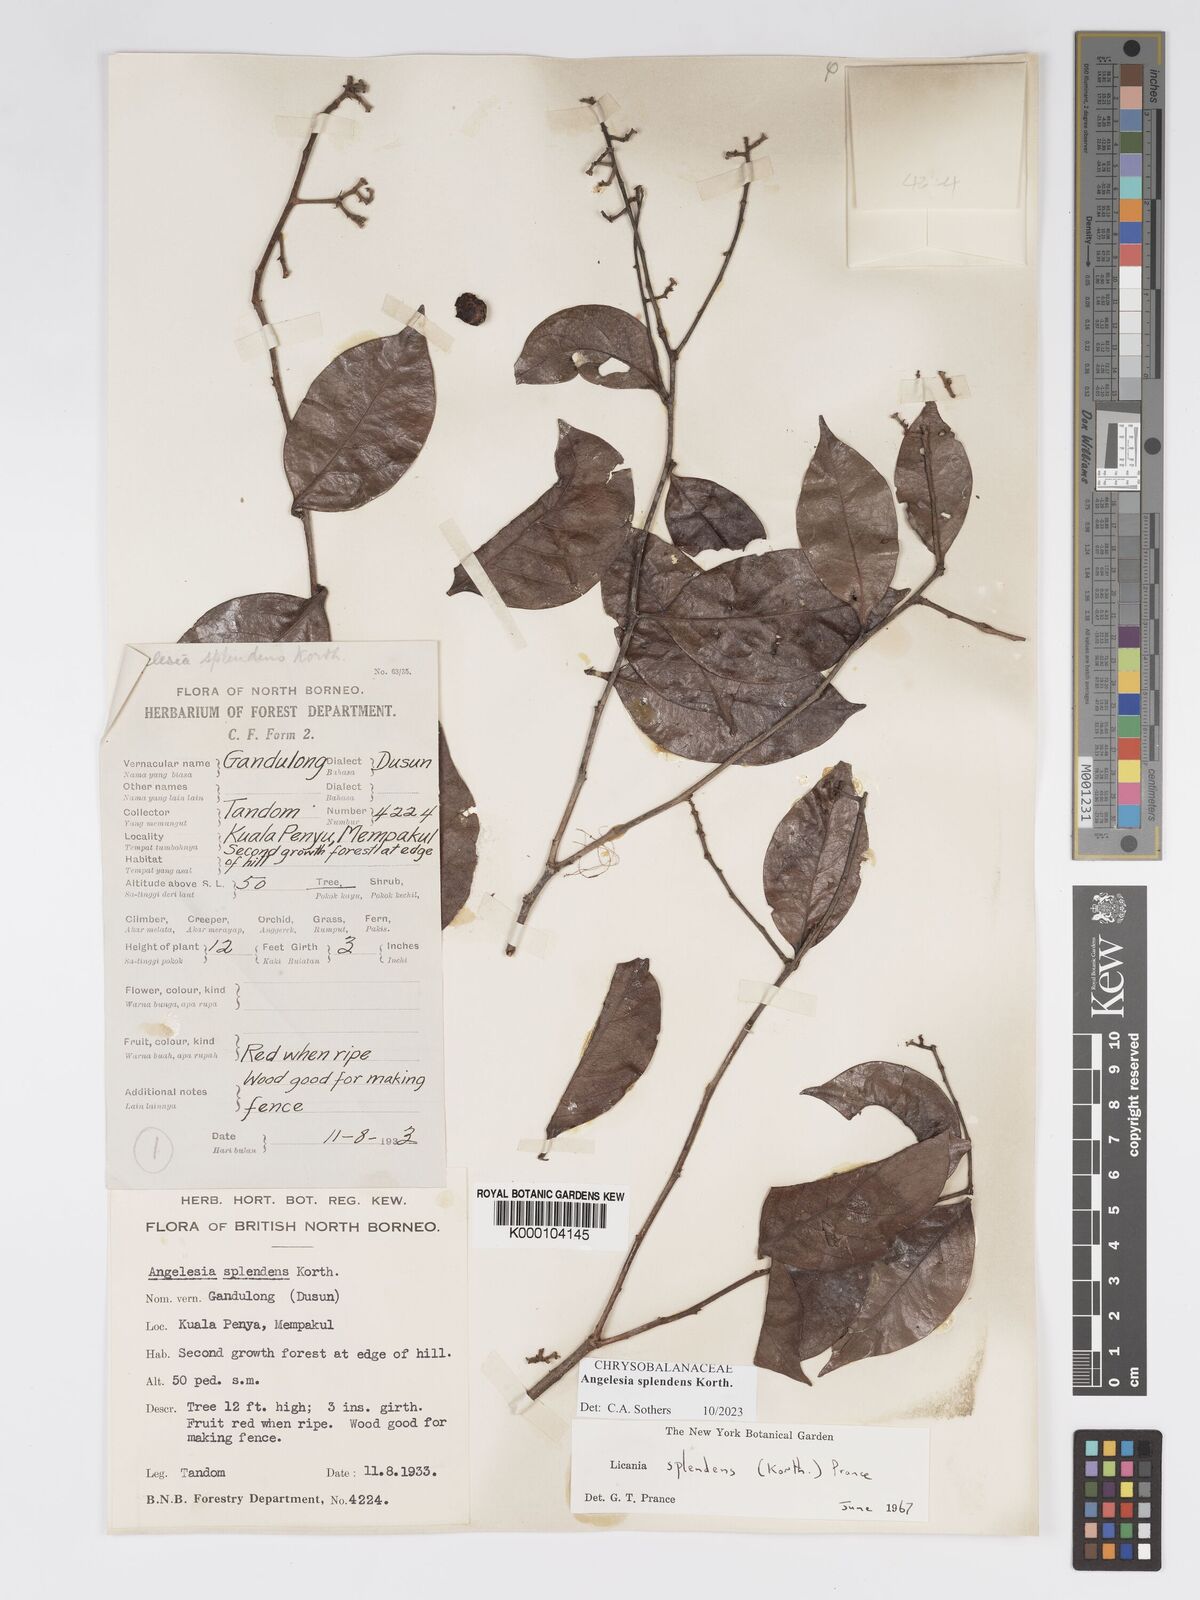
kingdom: Plantae
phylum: Tracheophyta
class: Magnoliopsida
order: Malpighiales
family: Chrysobalanaceae
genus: Angelesia
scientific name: Angelesia splendens
